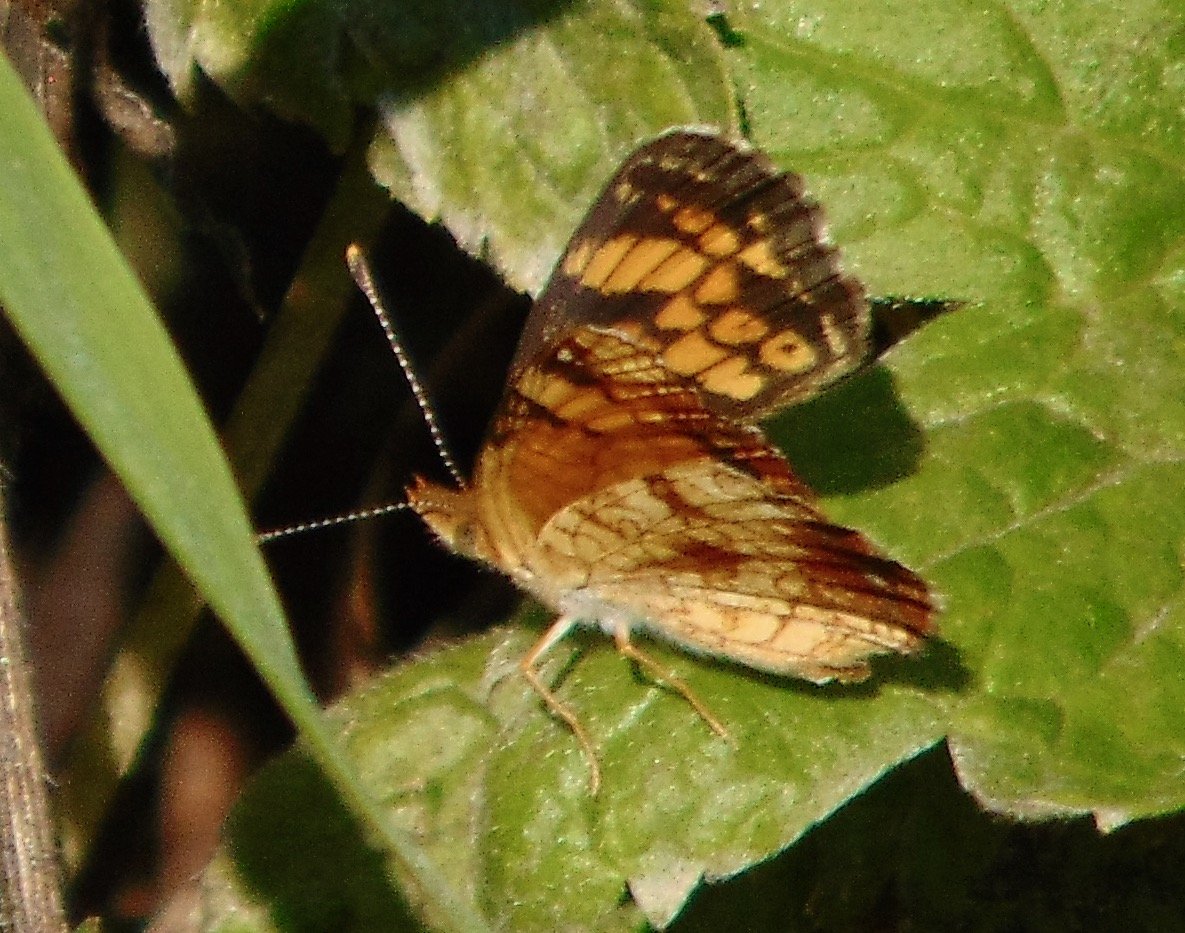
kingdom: Animalia
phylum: Arthropoda
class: Insecta
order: Lepidoptera
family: Nymphalidae
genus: Phyciodes
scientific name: Phyciodes tharos
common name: Pearl Crescent
